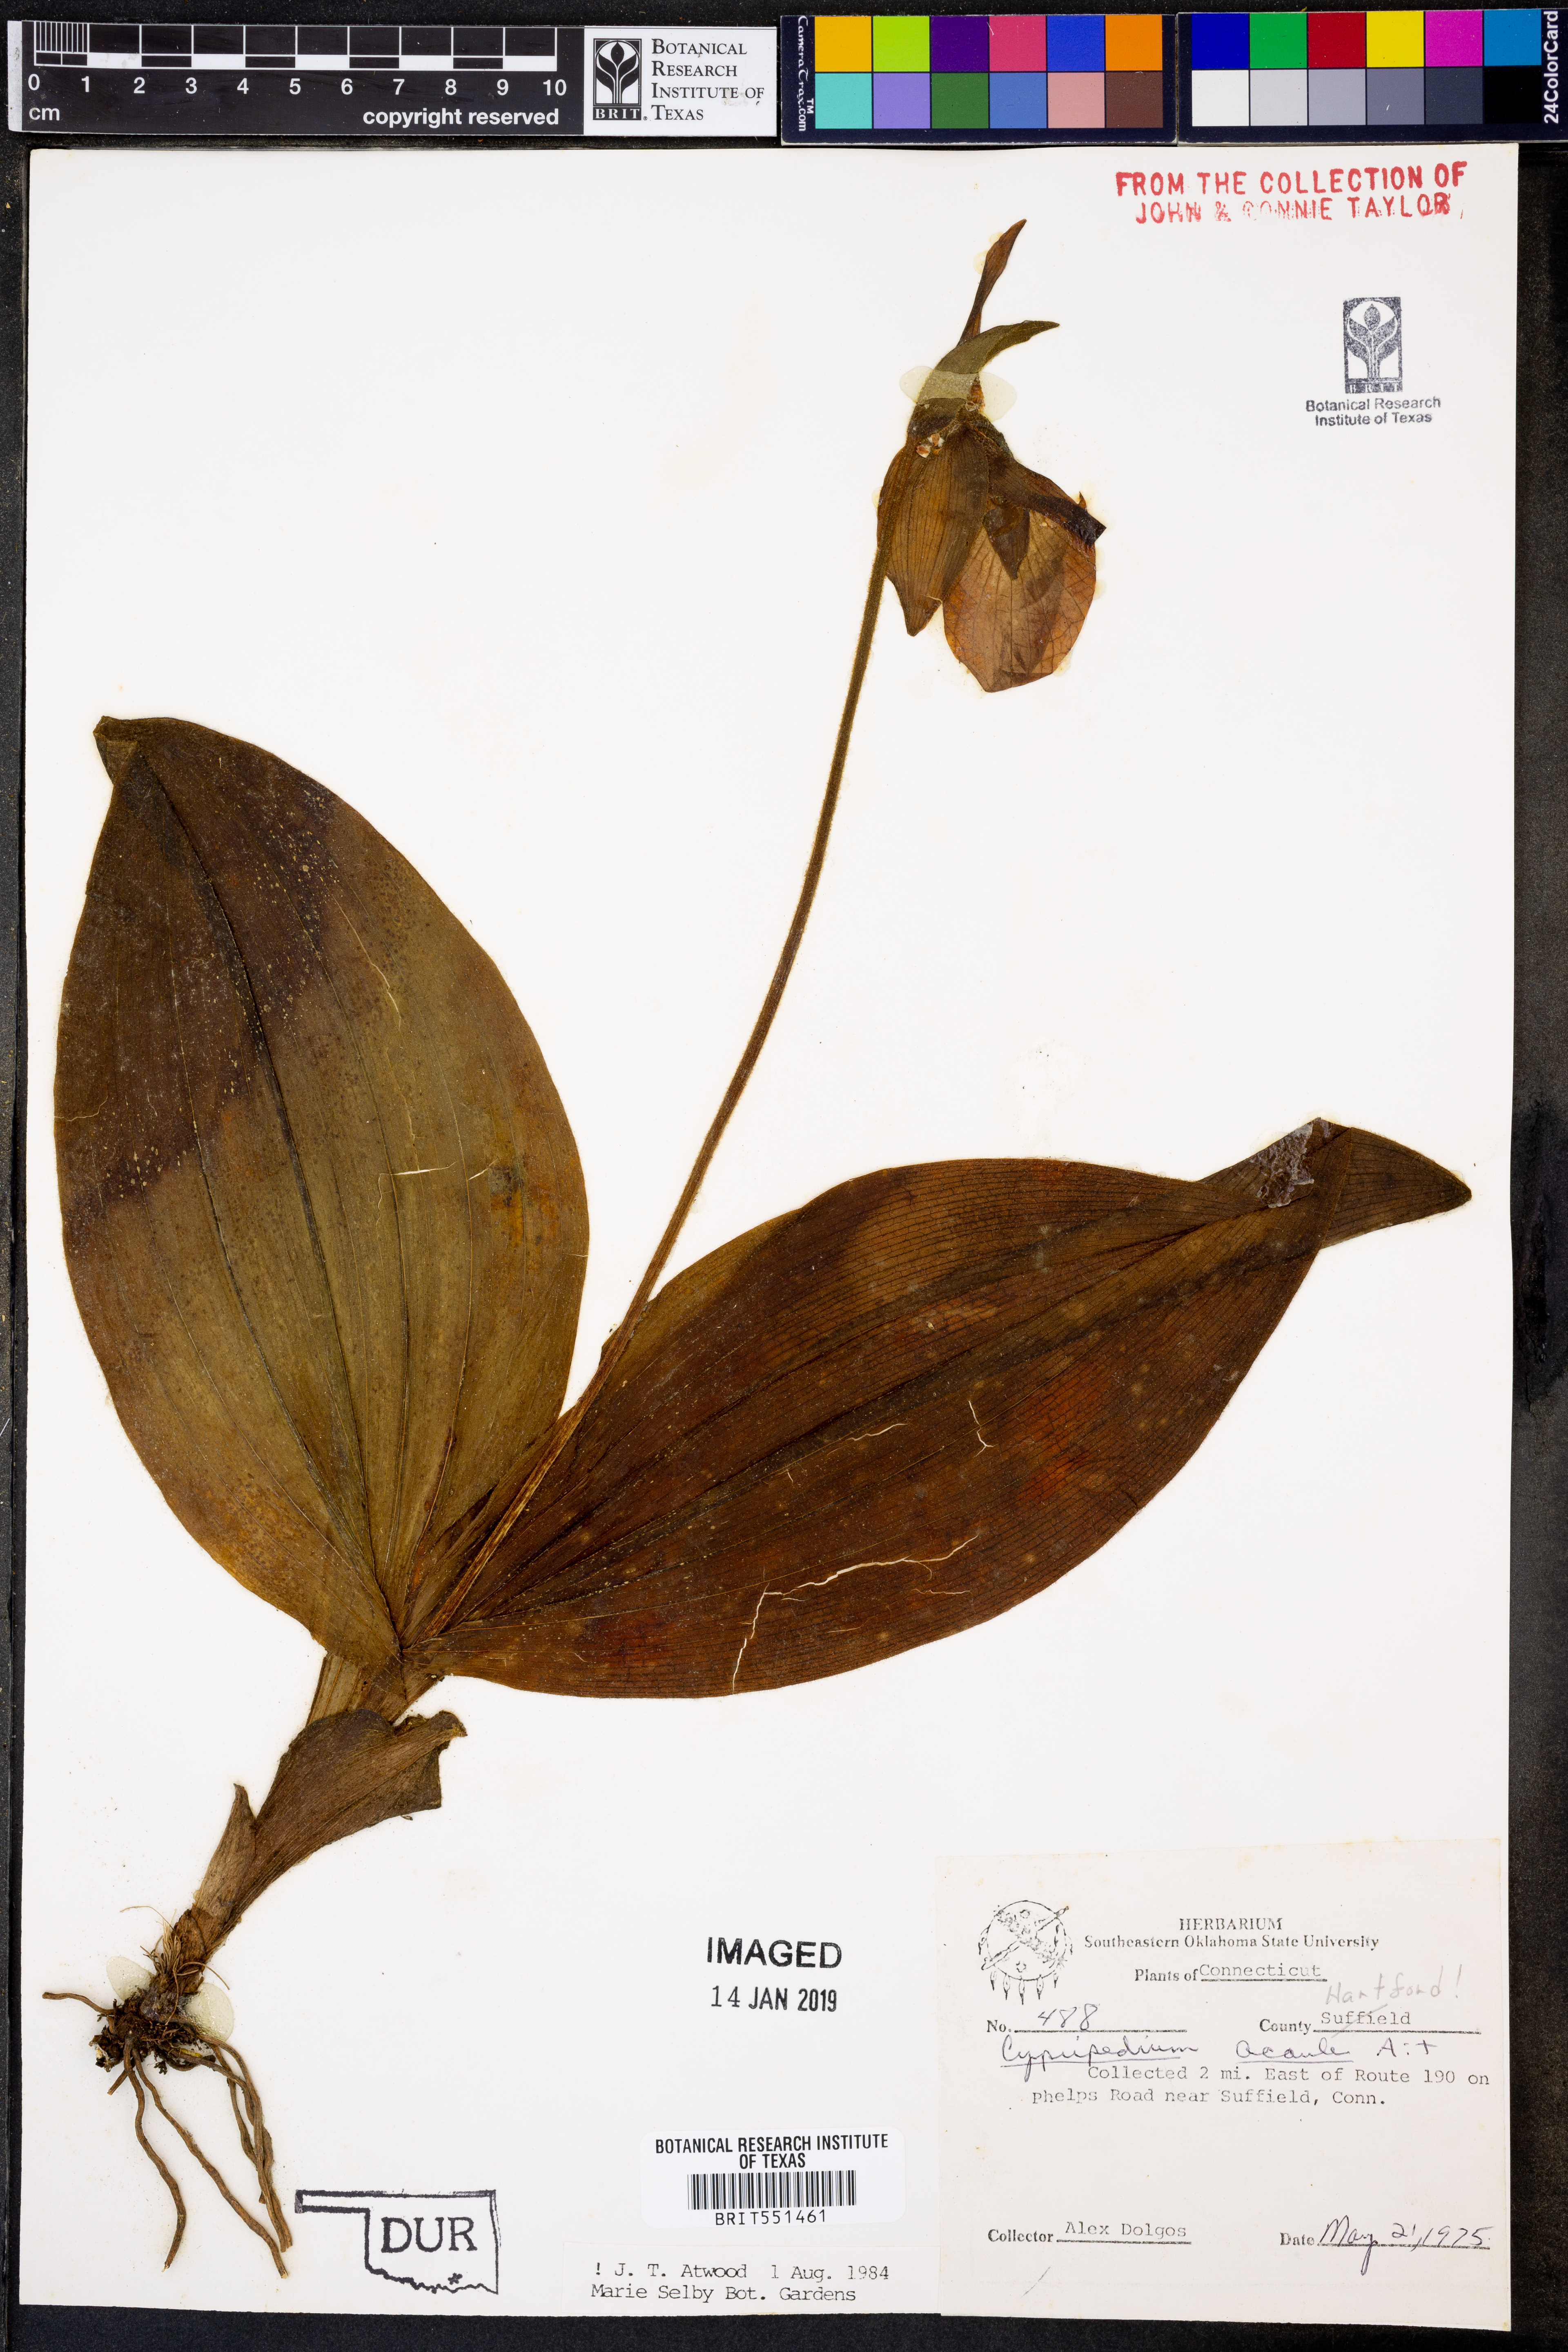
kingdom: Plantae
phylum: Tracheophyta
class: Liliopsida
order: Asparagales
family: Orchidaceae
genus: Cypripedium
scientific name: Cypripedium acaule
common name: Pink lady's-slipper
